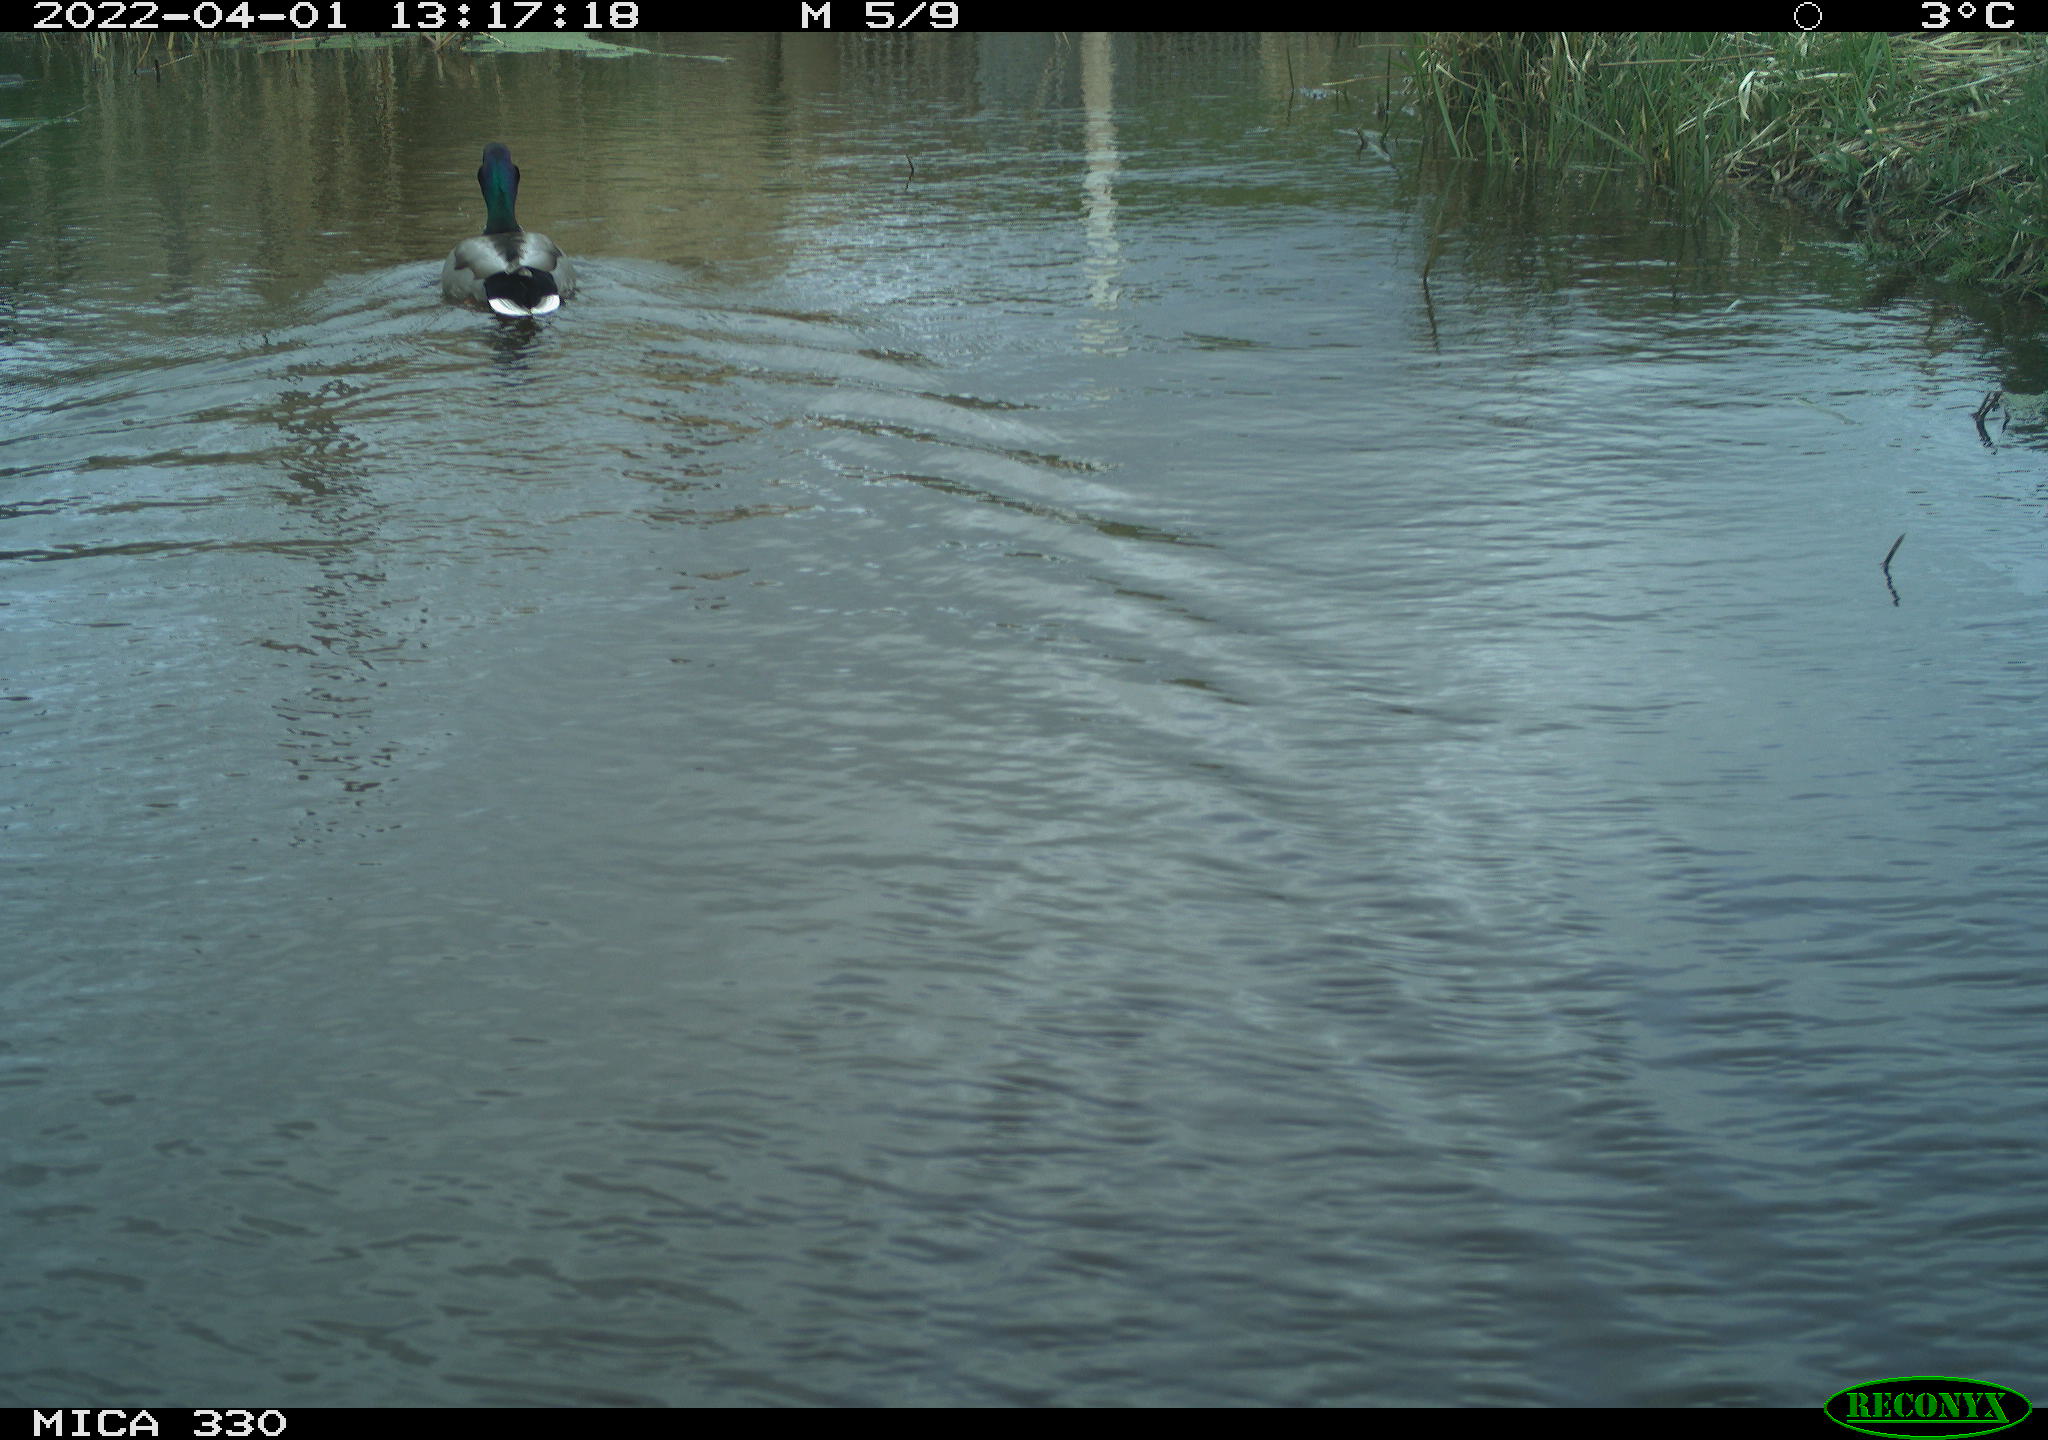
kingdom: Animalia
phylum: Chordata
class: Aves
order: Anseriformes
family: Anatidae
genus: Anas
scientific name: Anas platyrhynchos
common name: Mallard
